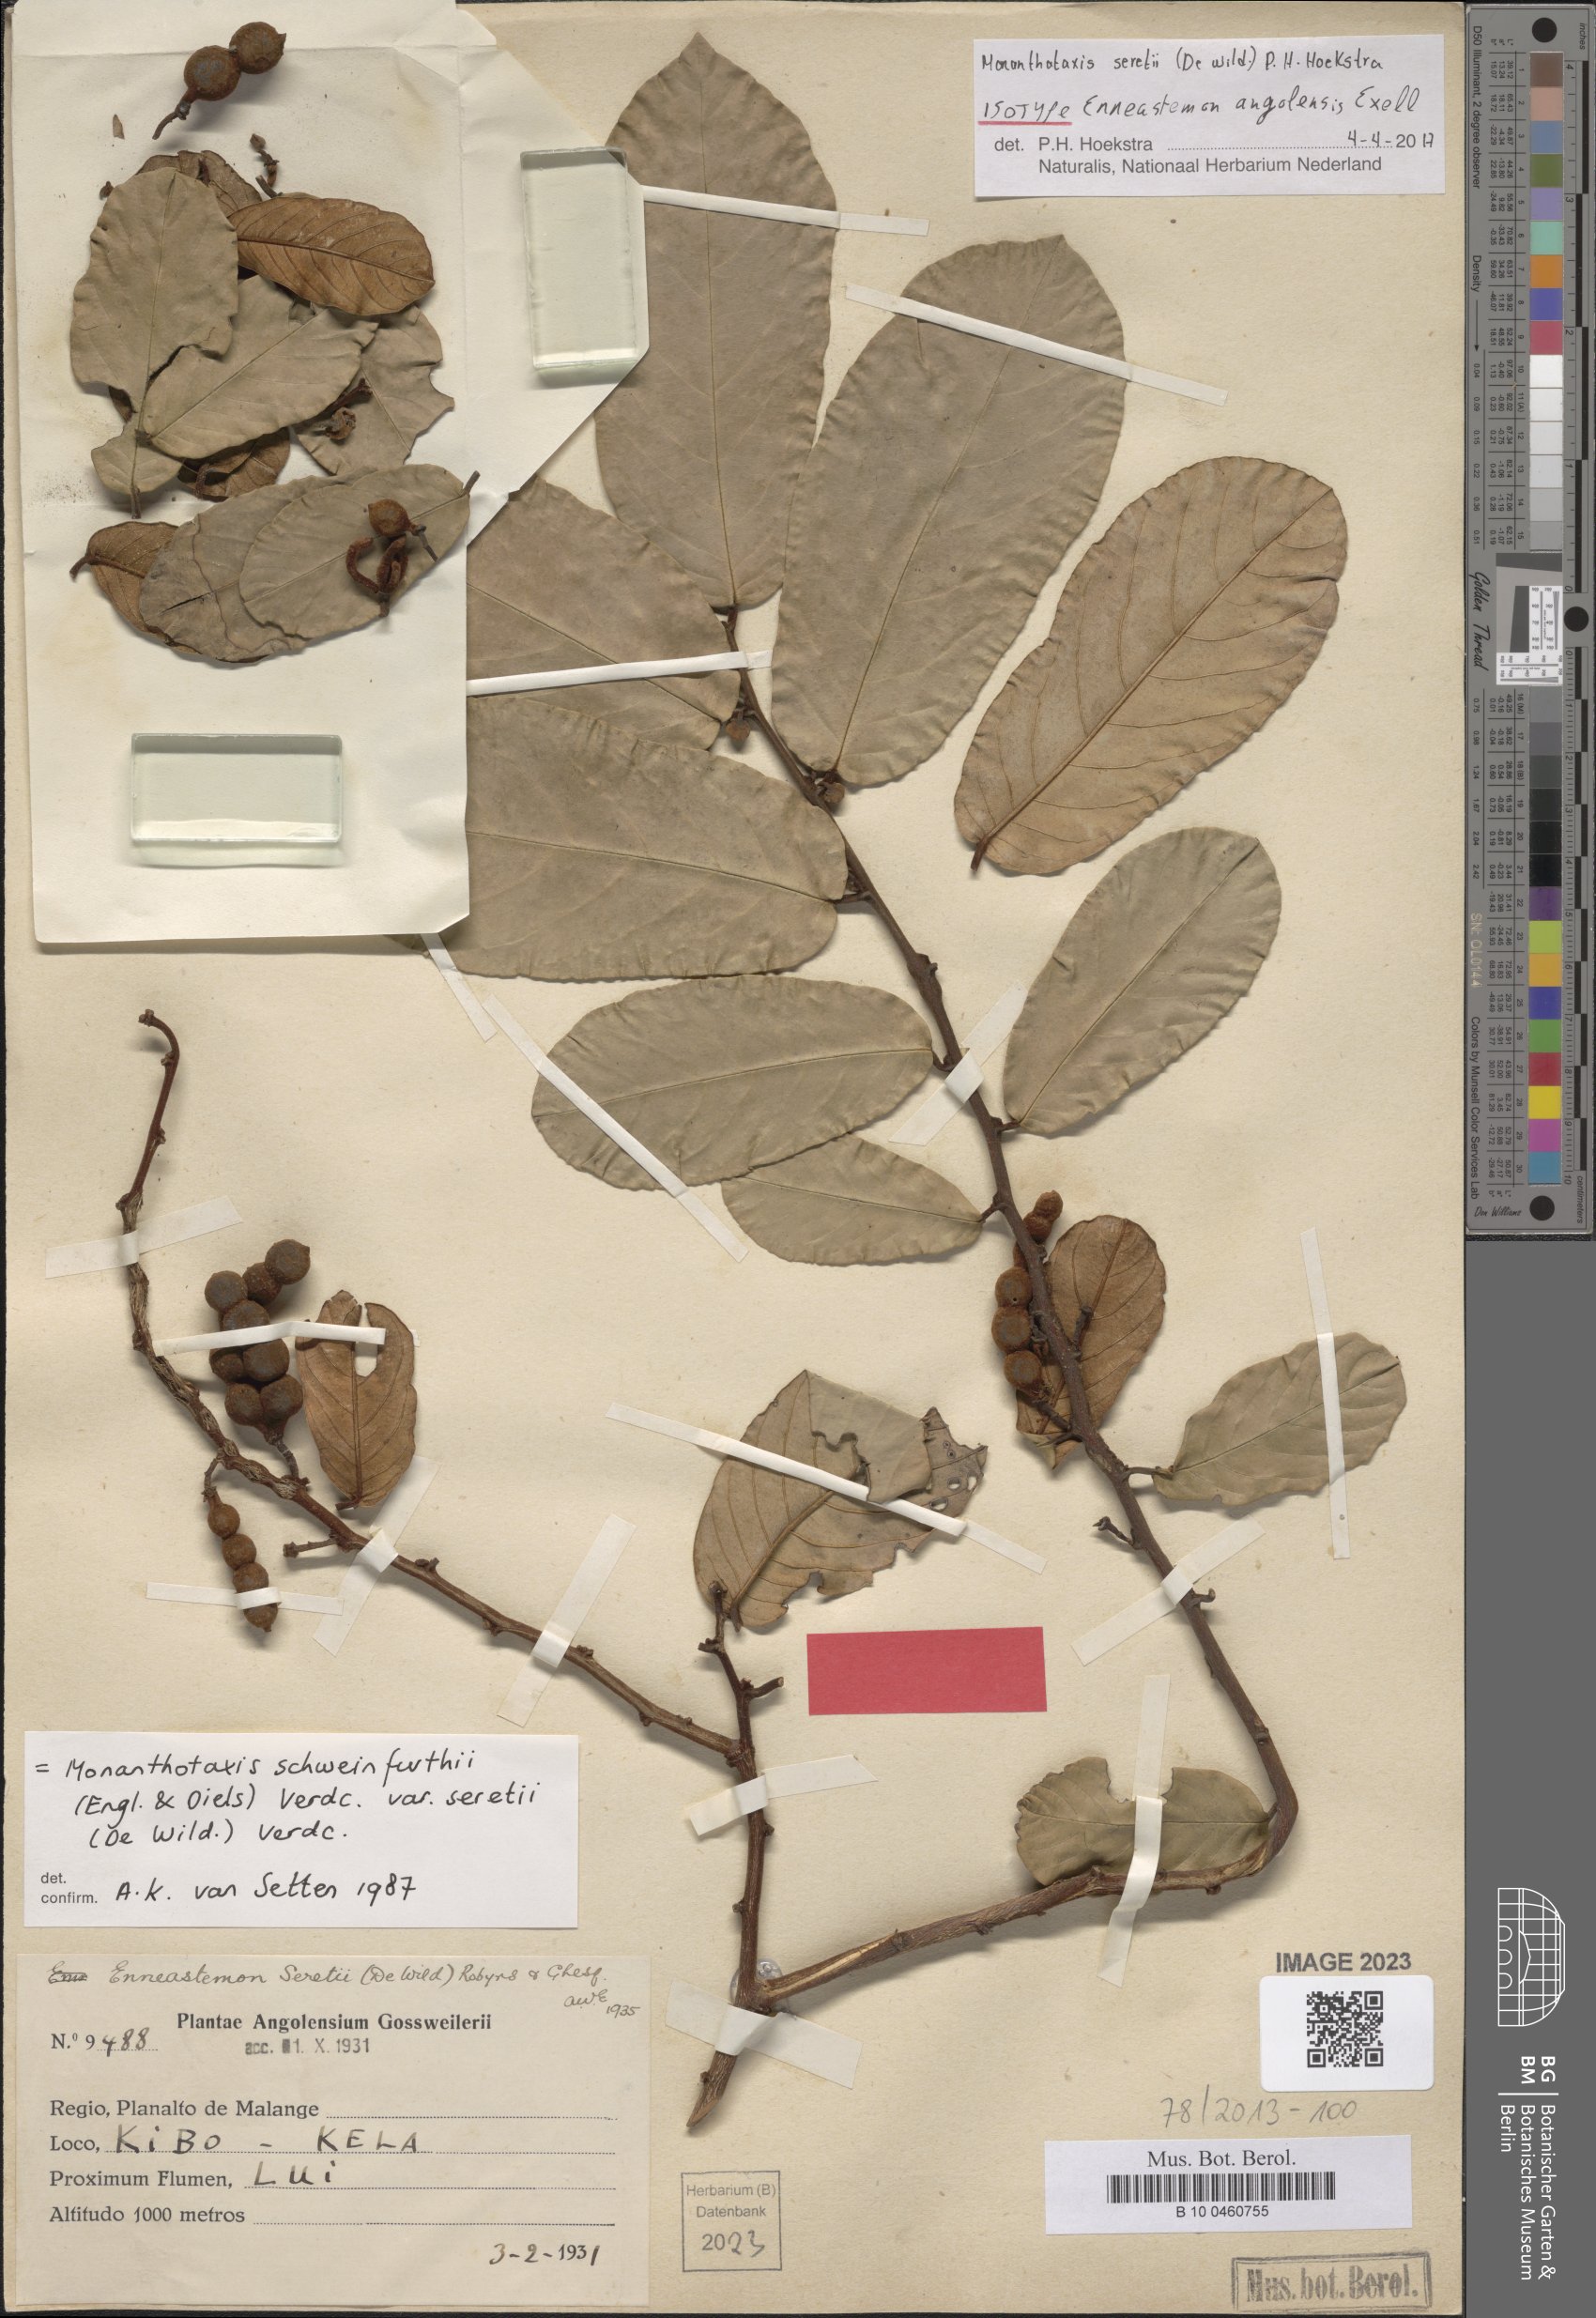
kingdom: Plantae
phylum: Tracheophyta
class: Magnoliopsida
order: Magnoliales
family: Annonaceae
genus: Monanthotaxis
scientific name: Monanthotaxis
